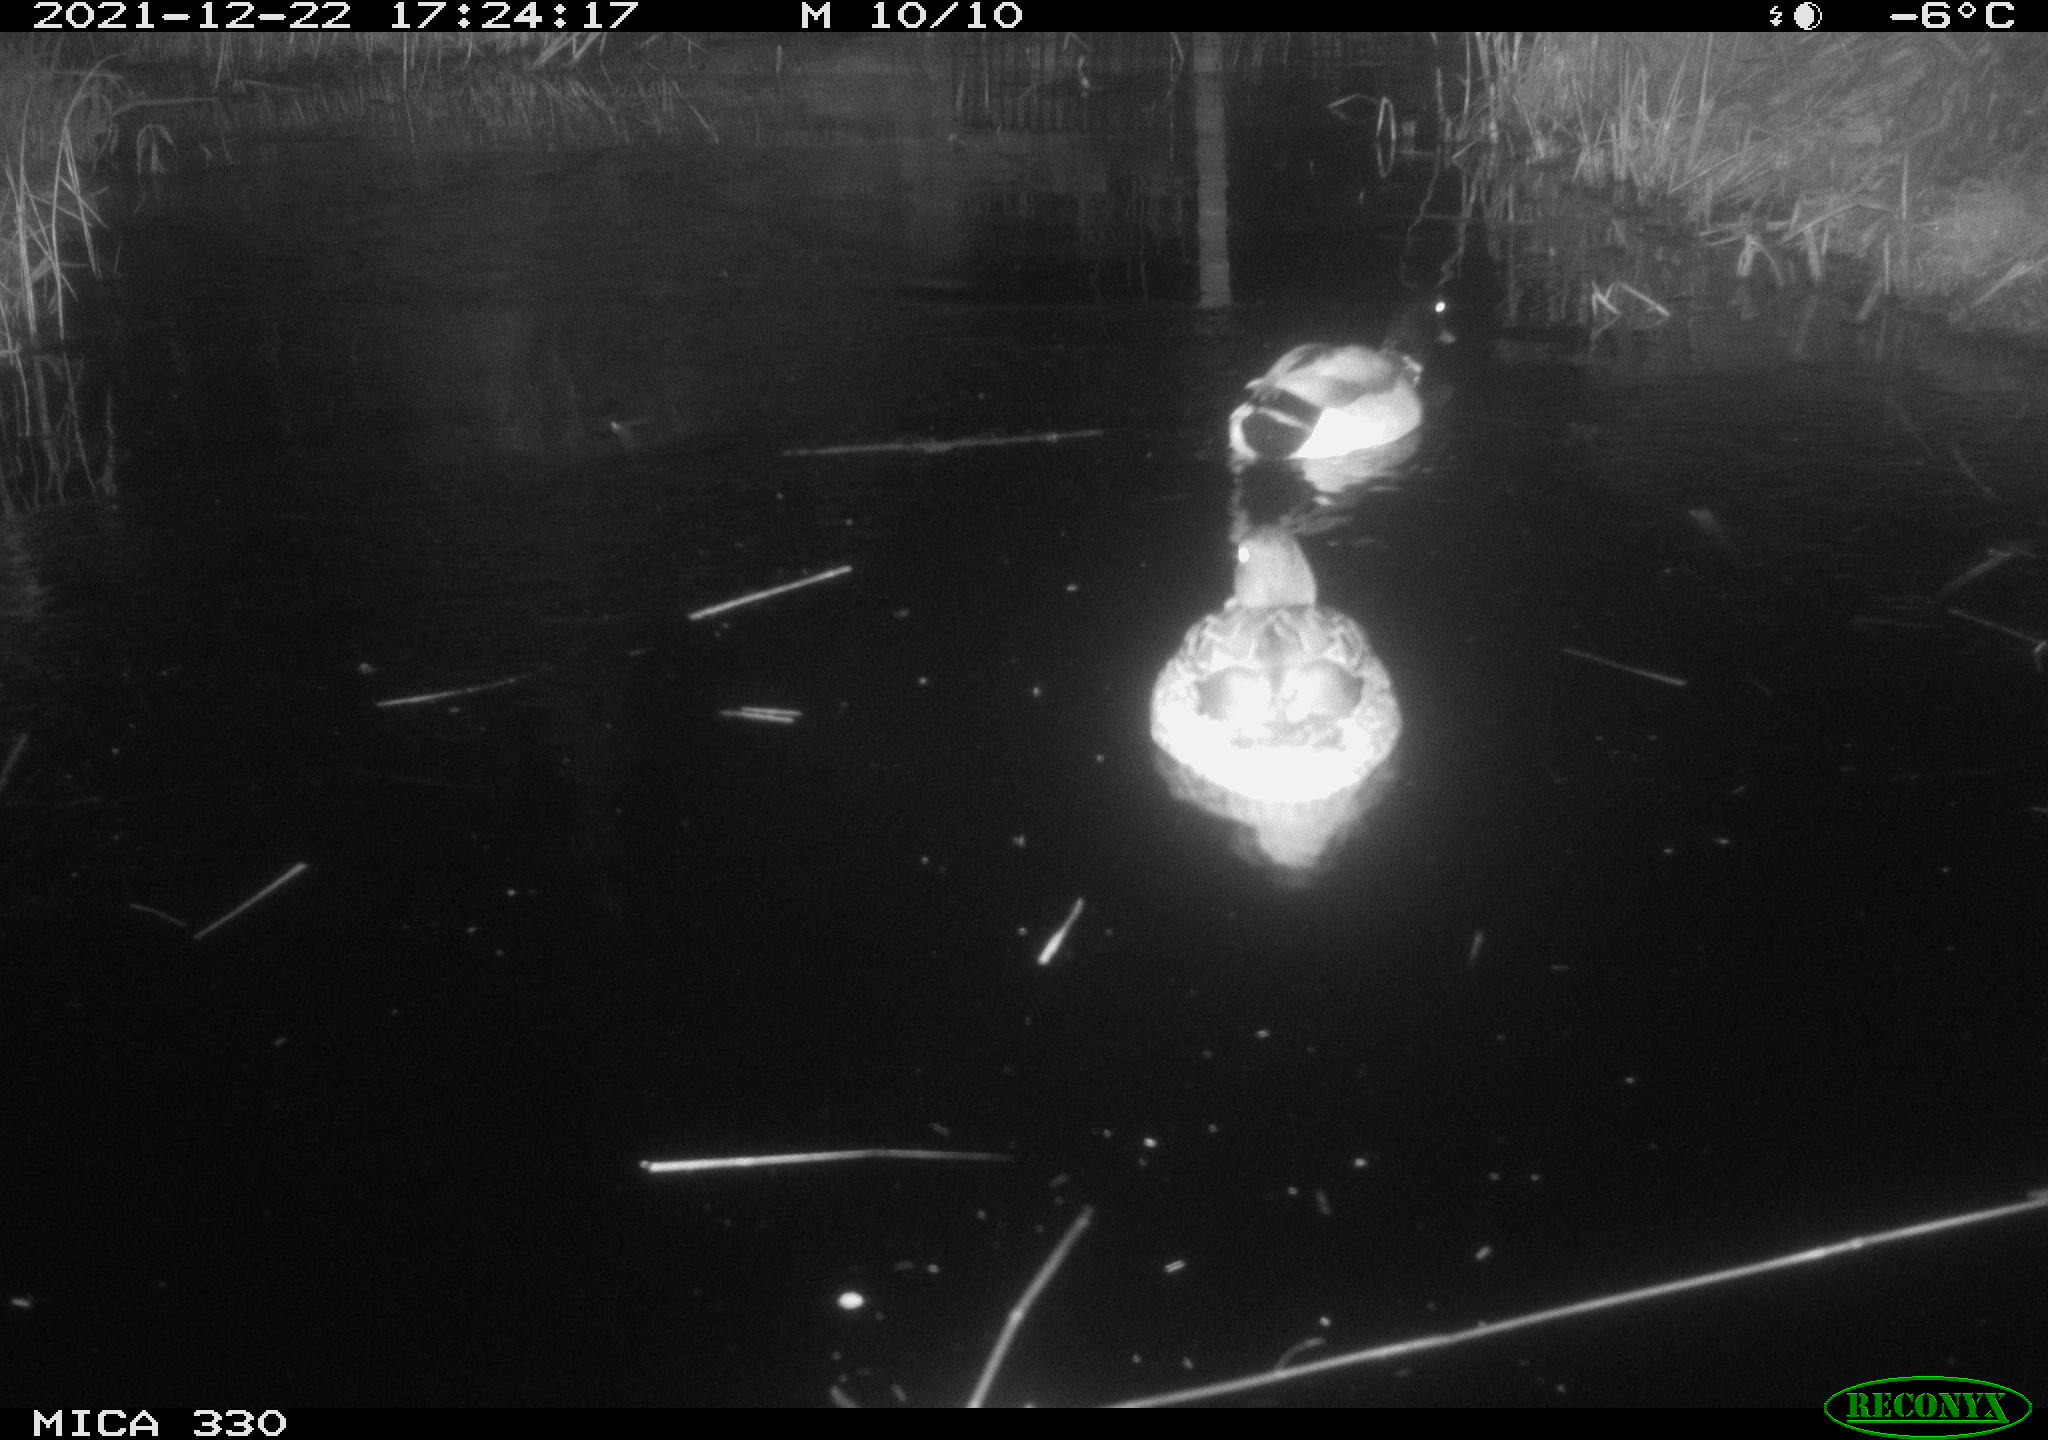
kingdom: Animalia
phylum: Chordata
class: Aves
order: Anseriformes
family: Anatidae
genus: Anas
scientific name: Anas platyrhynchos
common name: Mallard
